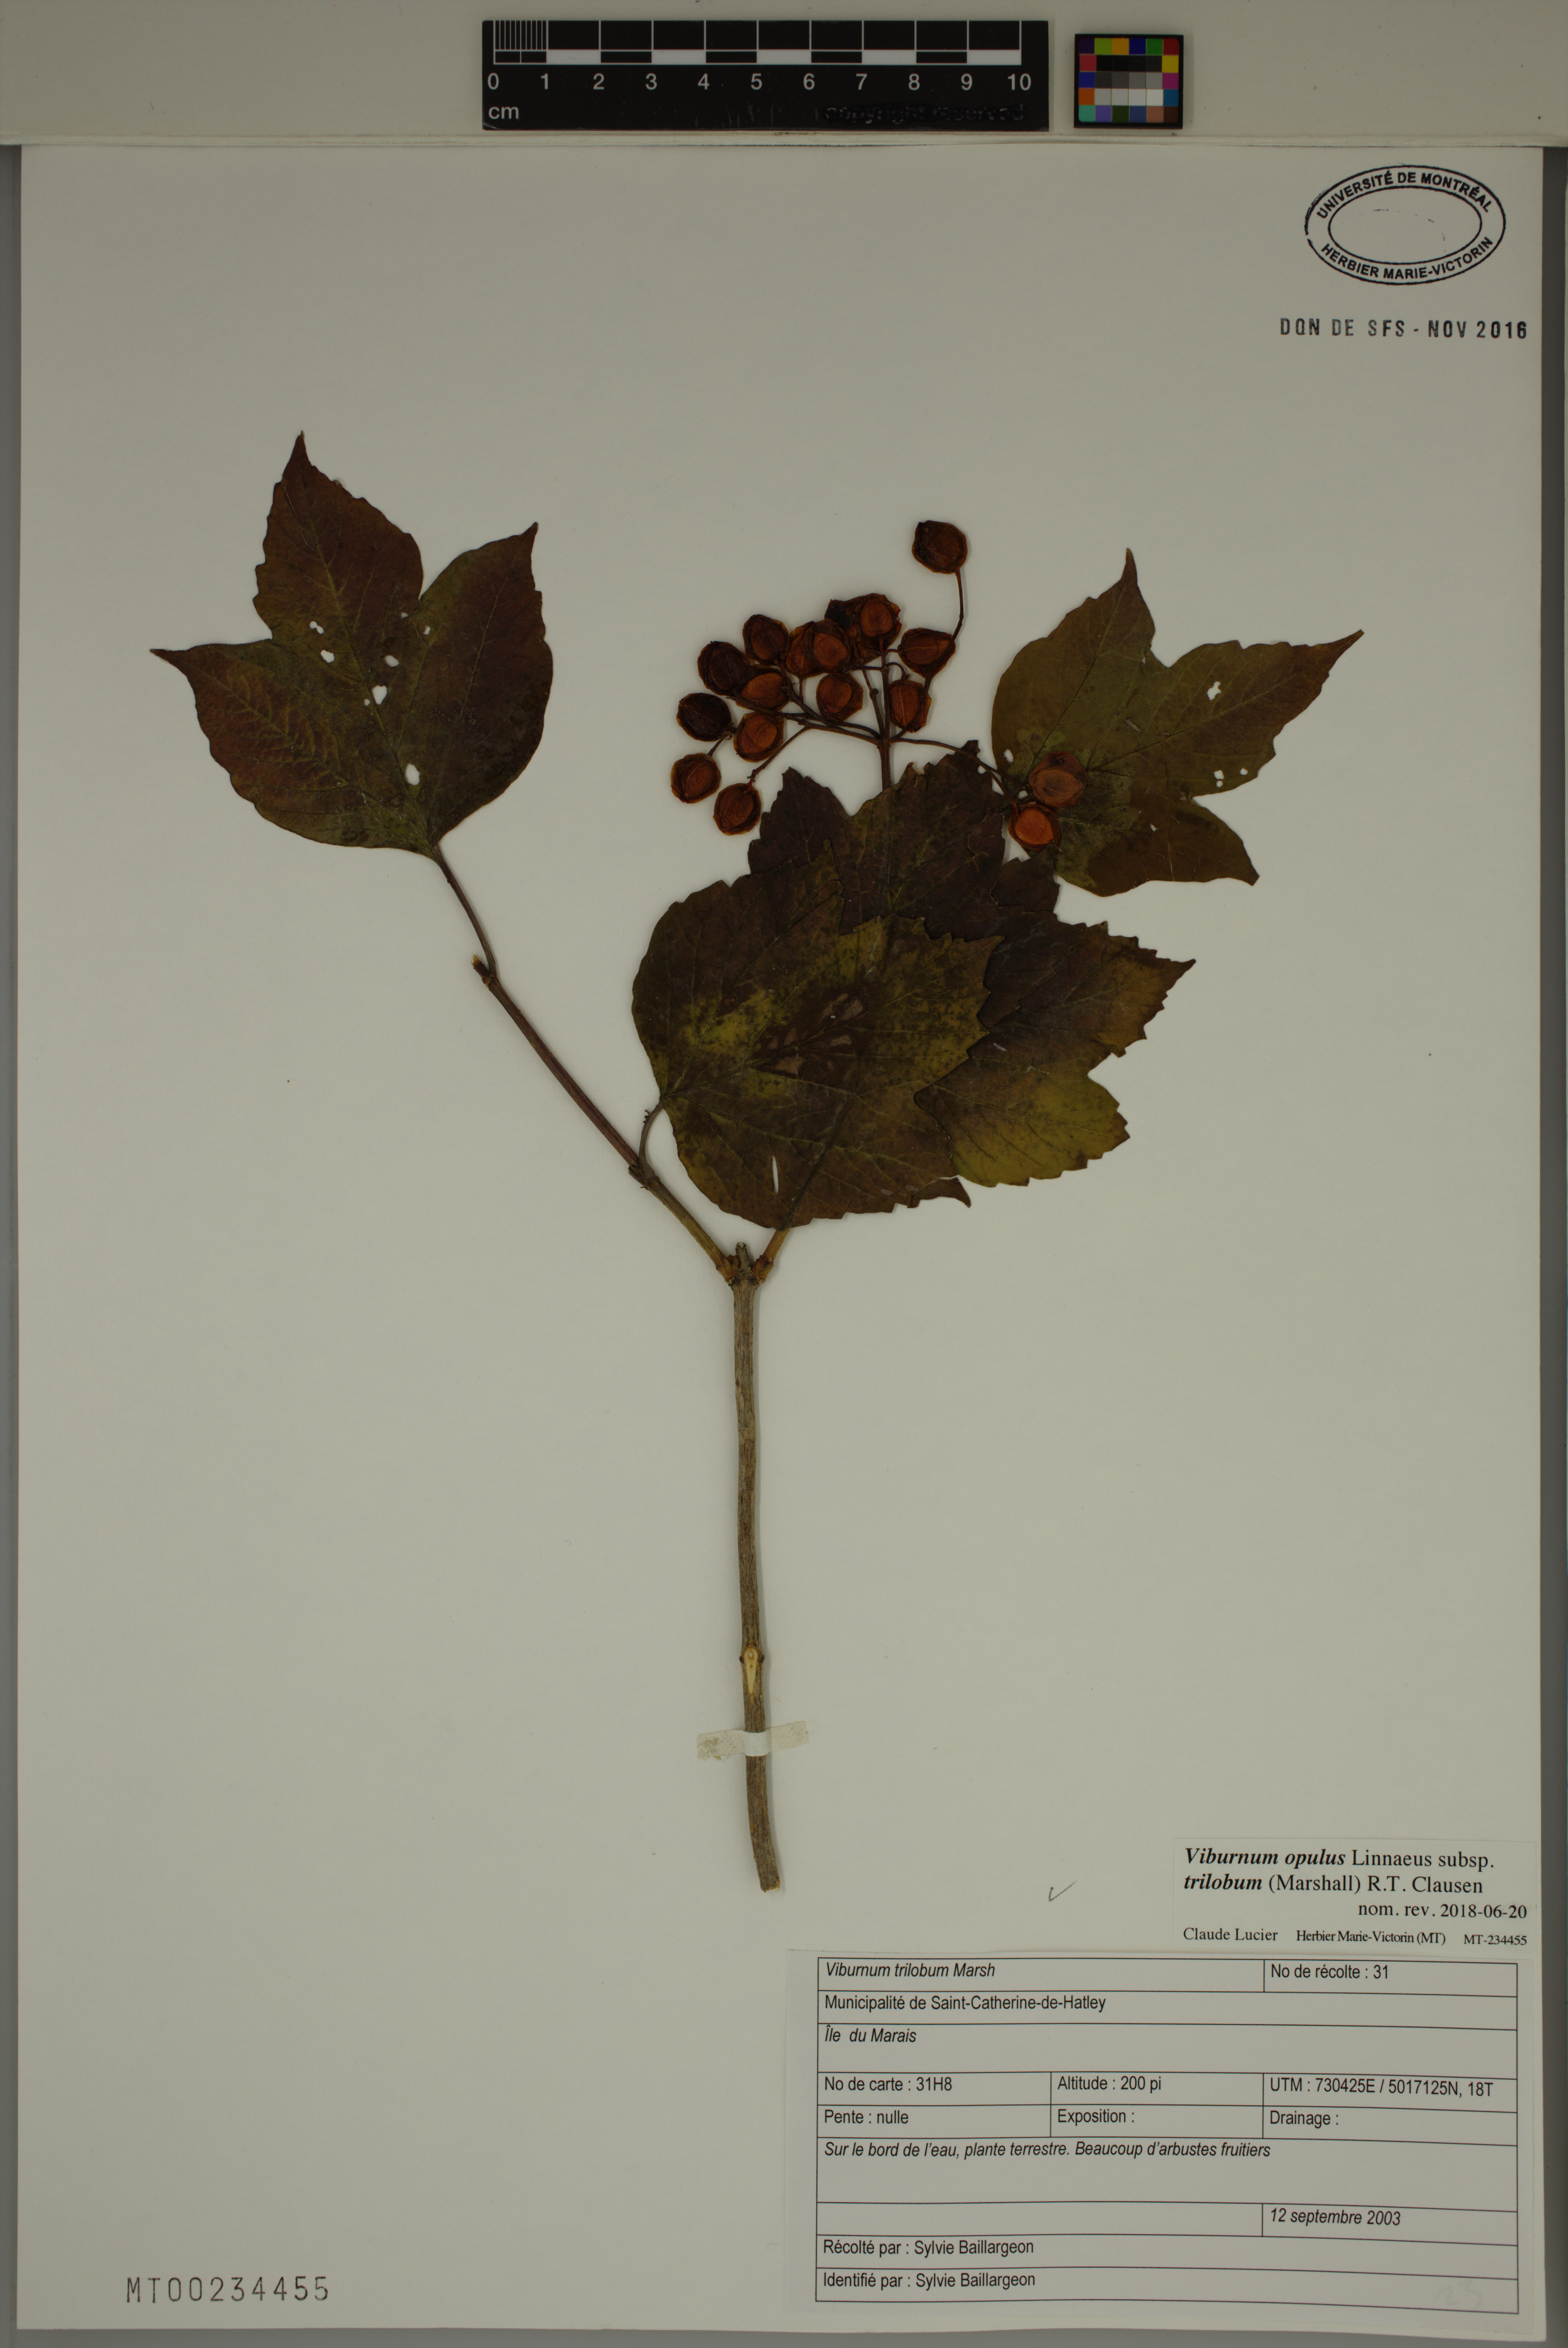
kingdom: Plantae
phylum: Tracheophyta
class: Magnoliopsida
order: Dipsacales
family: Viburnaceae
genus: Viburnum
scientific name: Viburnum trilobum
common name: American cranberrybush
